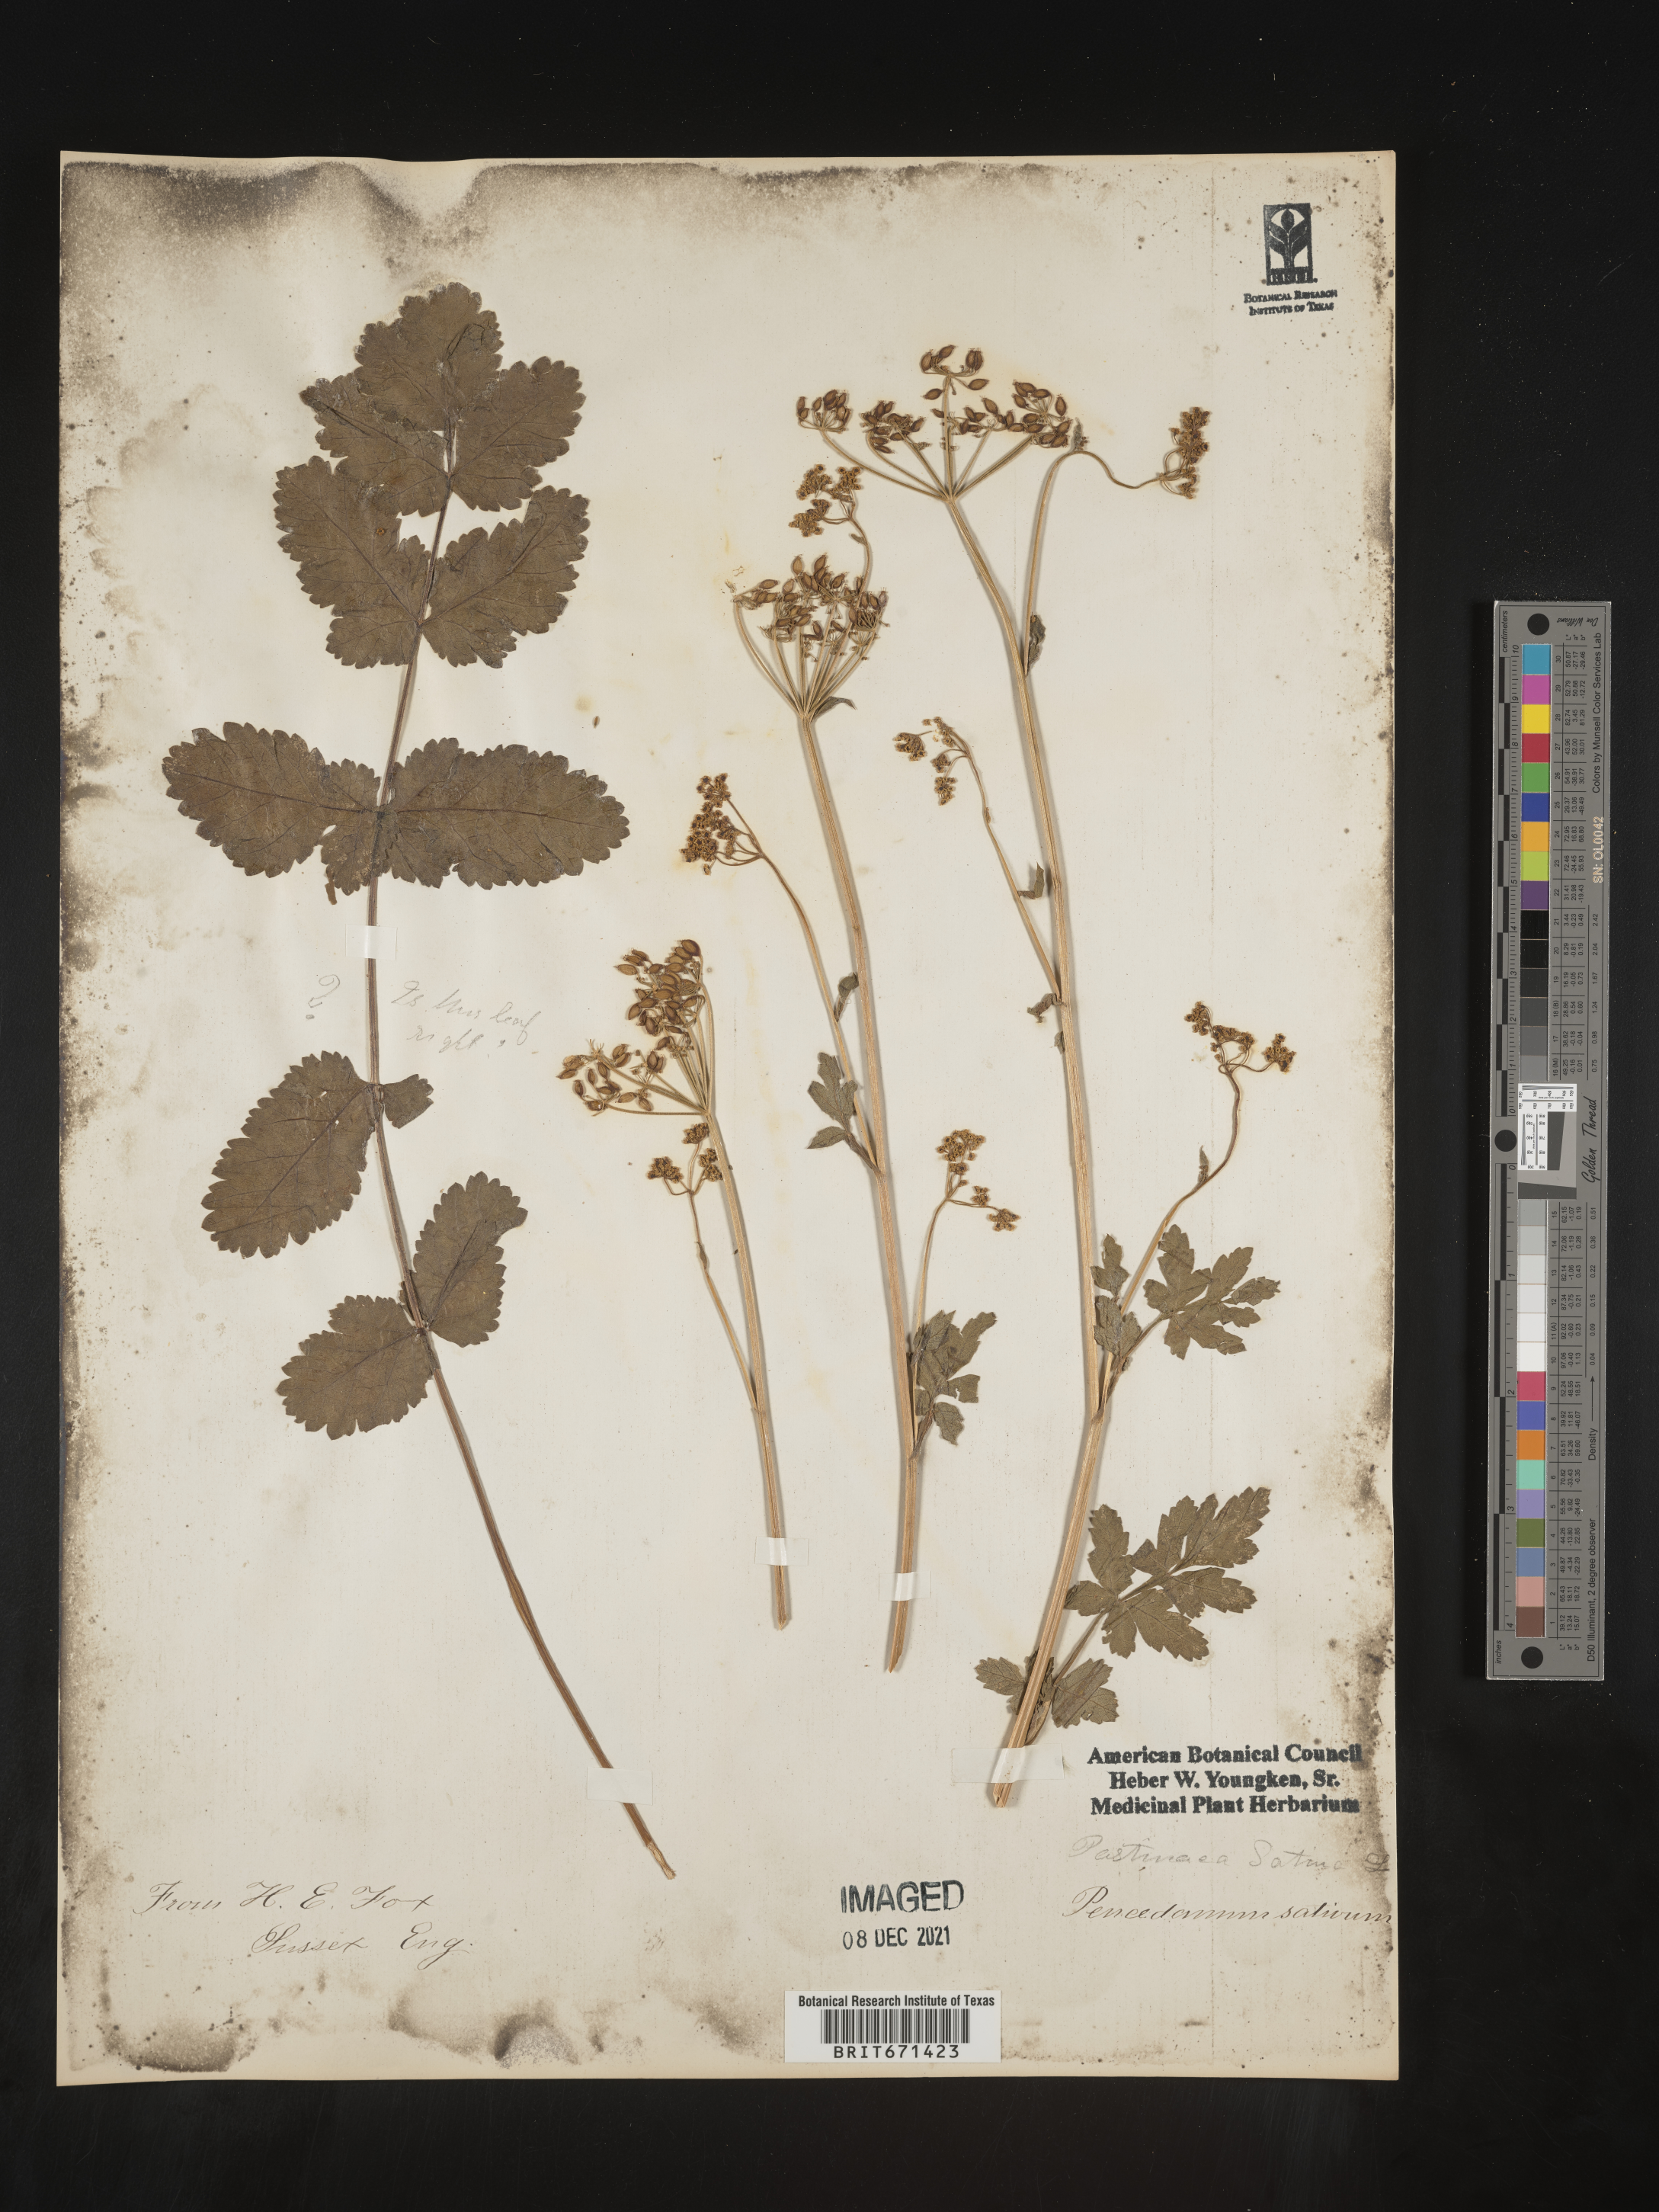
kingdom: Plantae
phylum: Tracheophyta
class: Magnoliopsida
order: Apiales
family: Apiaceae
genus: Pastinaca
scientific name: Pastinaca
